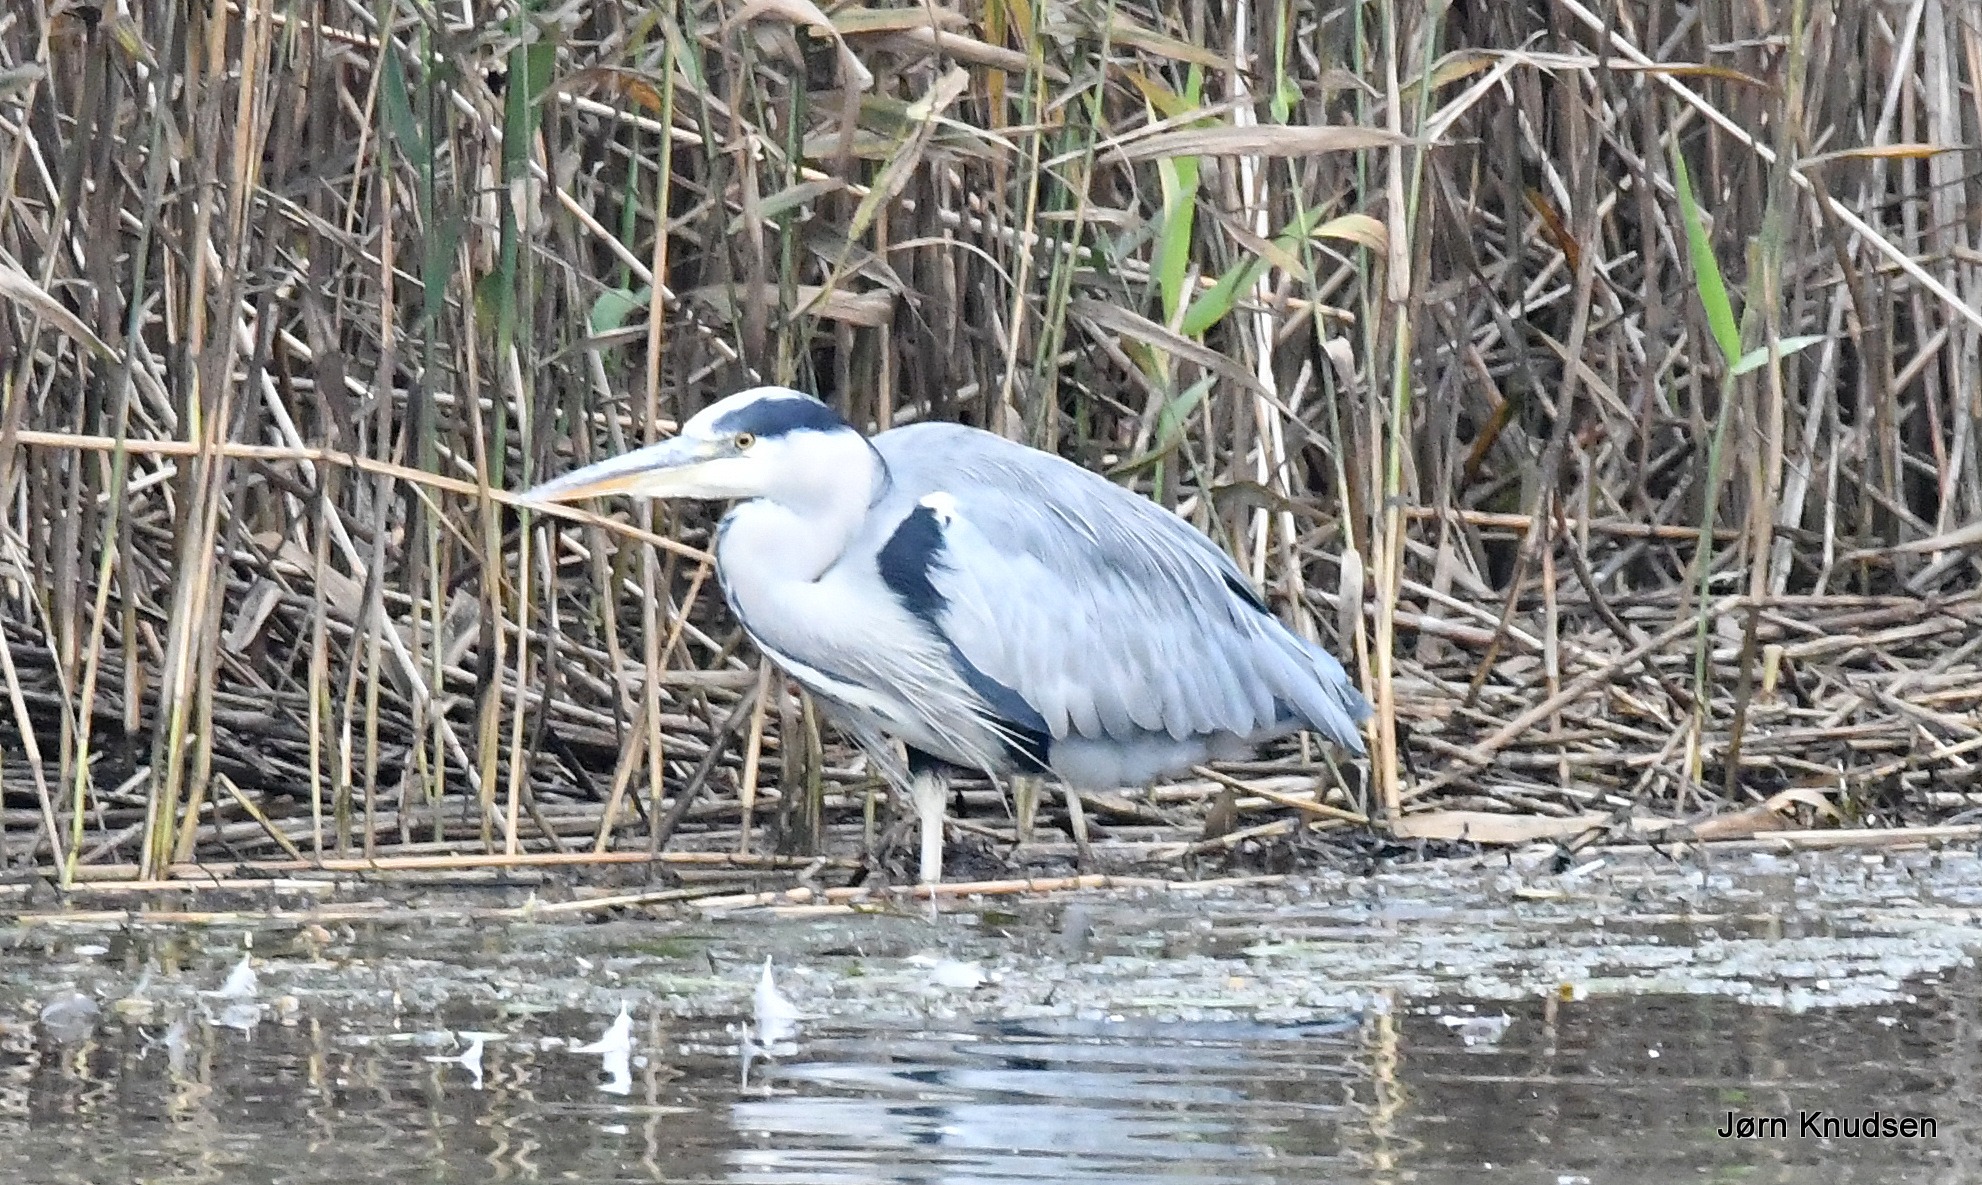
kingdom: Animalia
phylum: Chordata
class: Aves
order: Pelecaniformes
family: Ardeidae
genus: Ardea
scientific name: Ardea cinerea
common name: Fiskehejre
